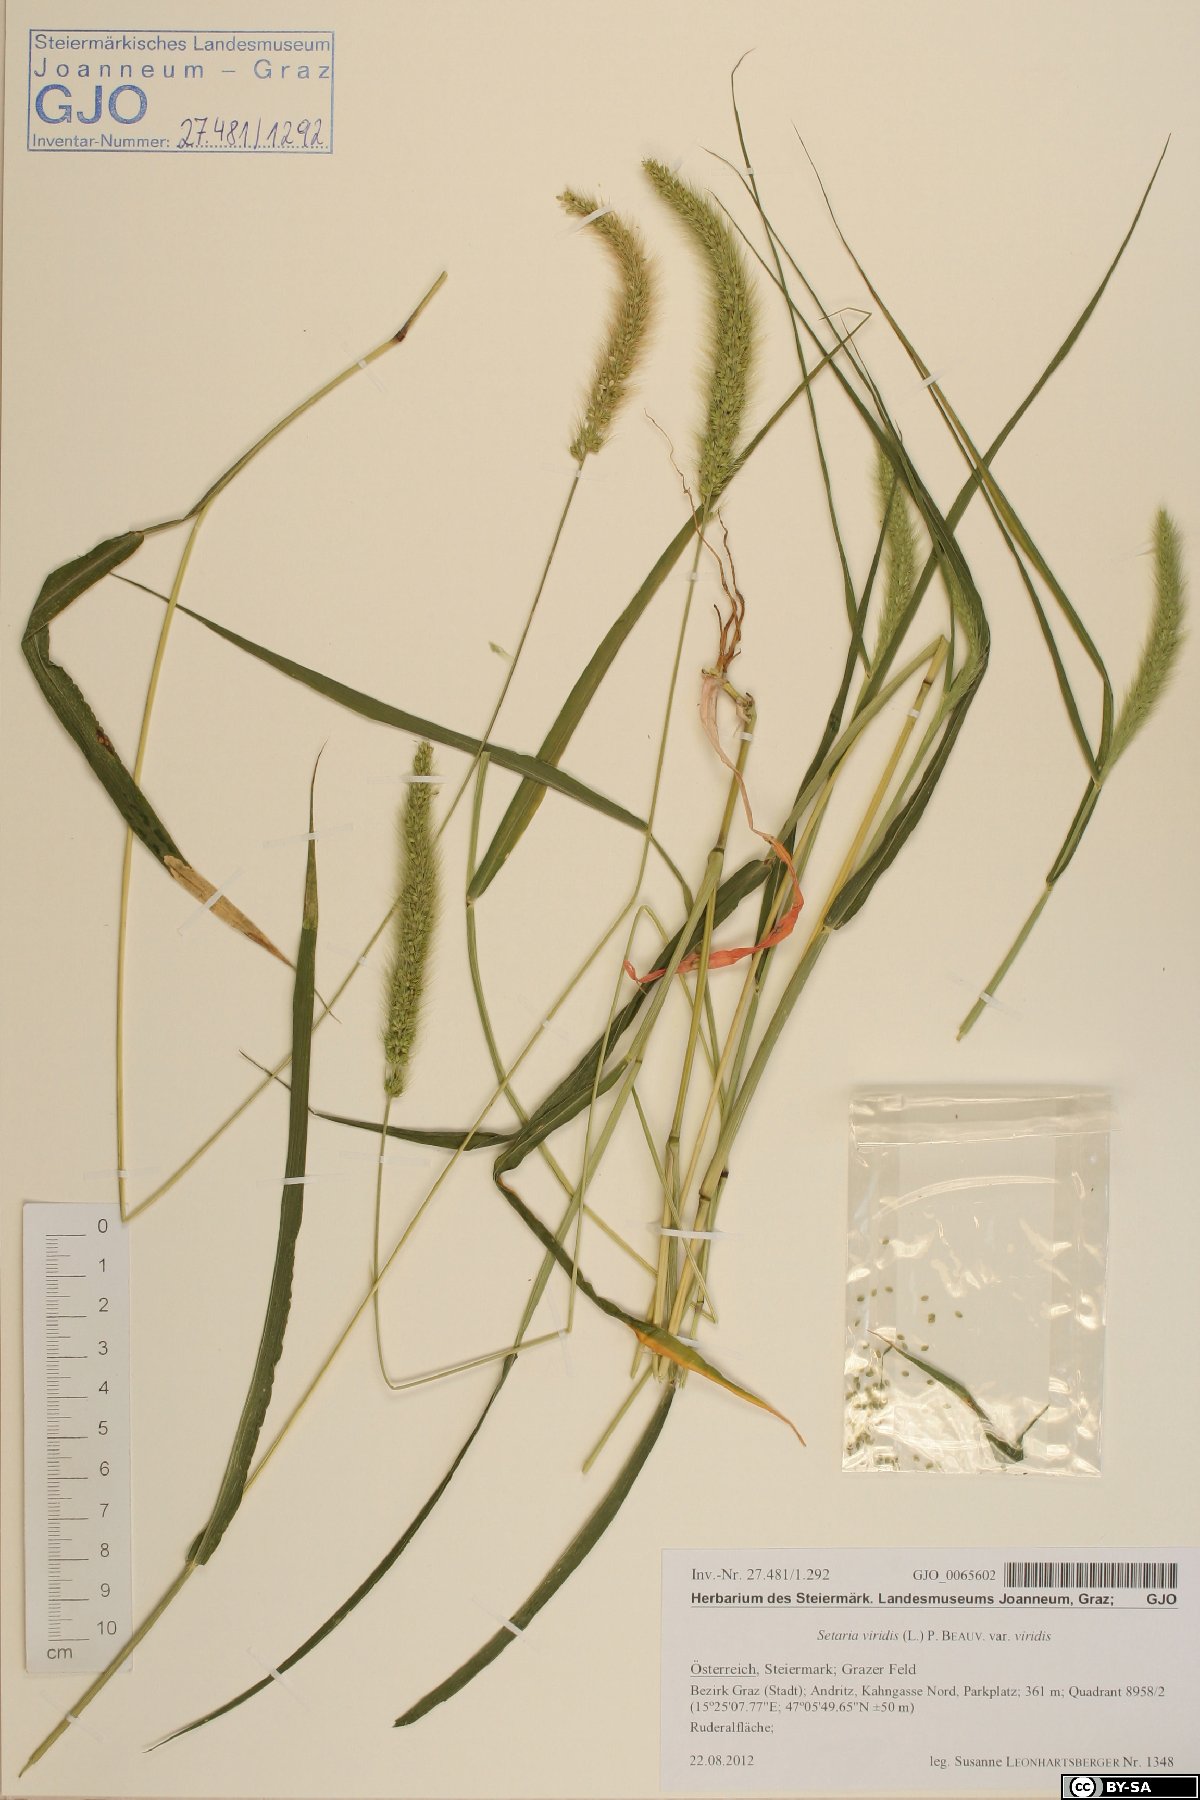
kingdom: Plantae
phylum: Tracheophyta
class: Liliopsida
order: Poales
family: Poaceae
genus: Setaria
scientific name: Setaria viridis
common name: Green bristlegrass
